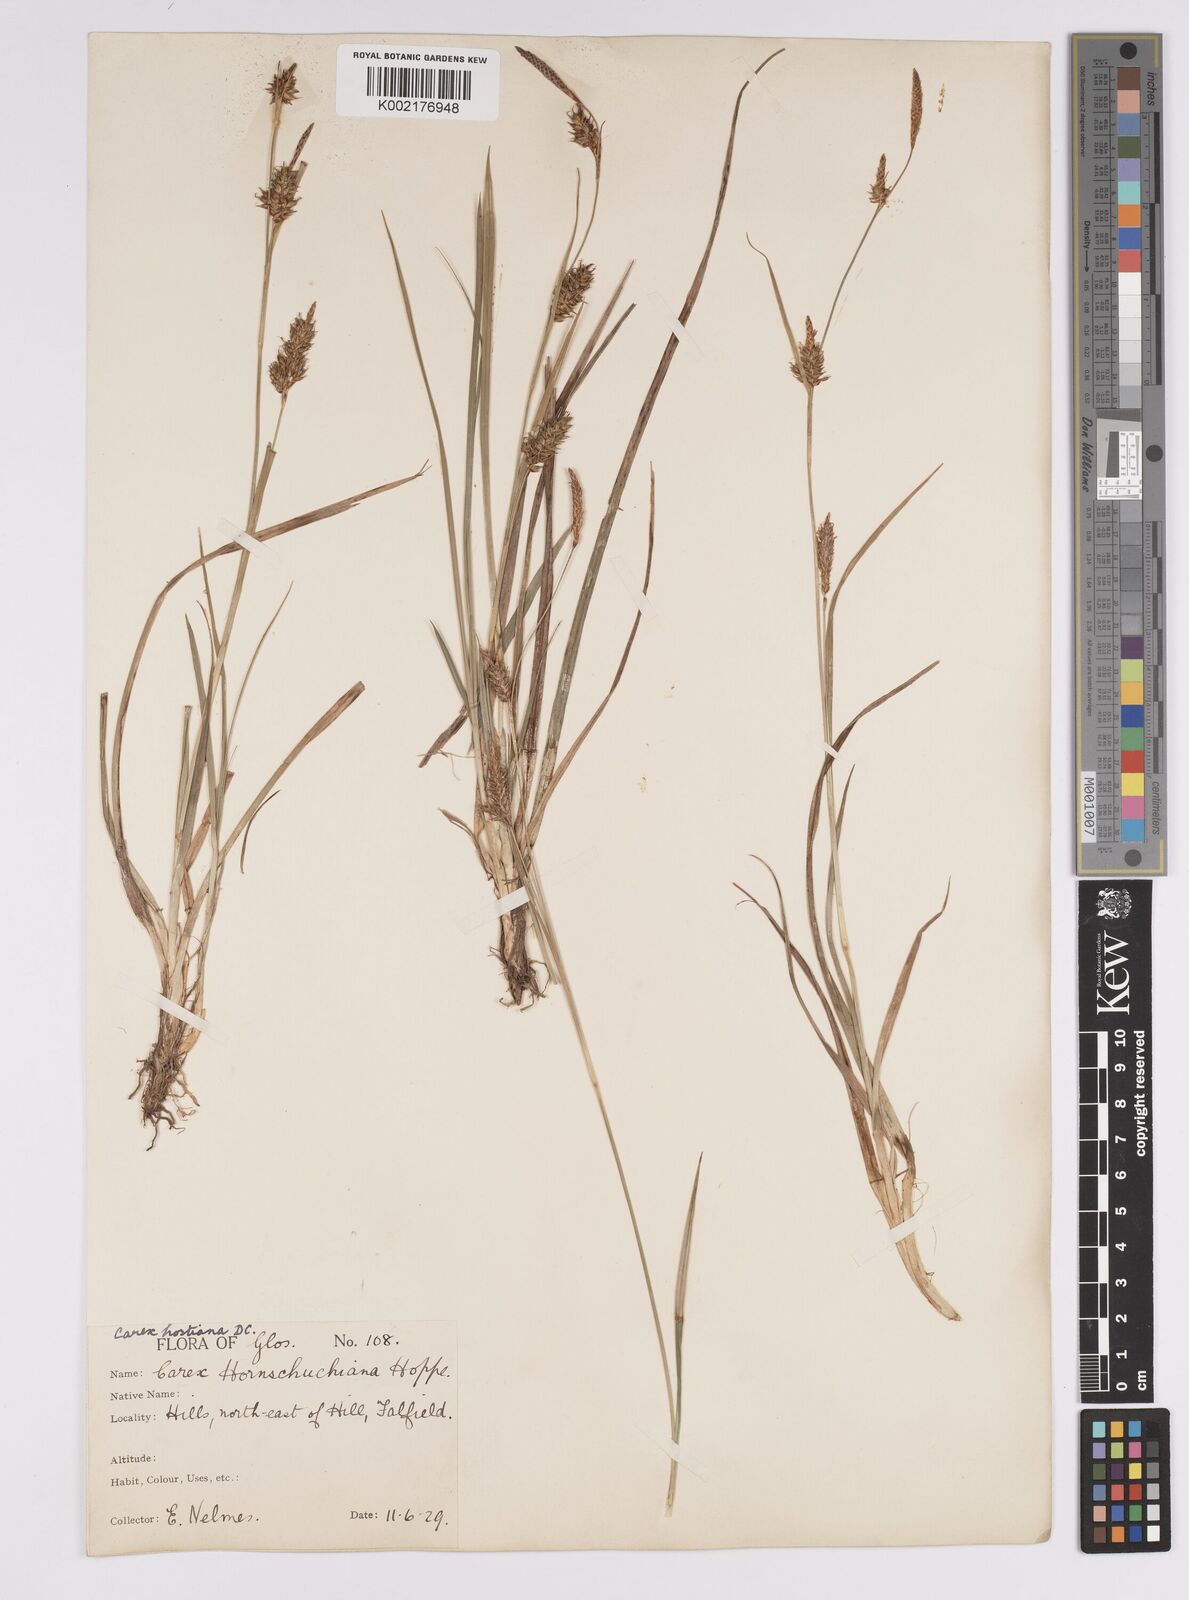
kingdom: Plantae
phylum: Tracheophyta
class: Liliopsida
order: Poales
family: Cyperaceae
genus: Carex
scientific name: Carex hostiana
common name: Tawny sedge
